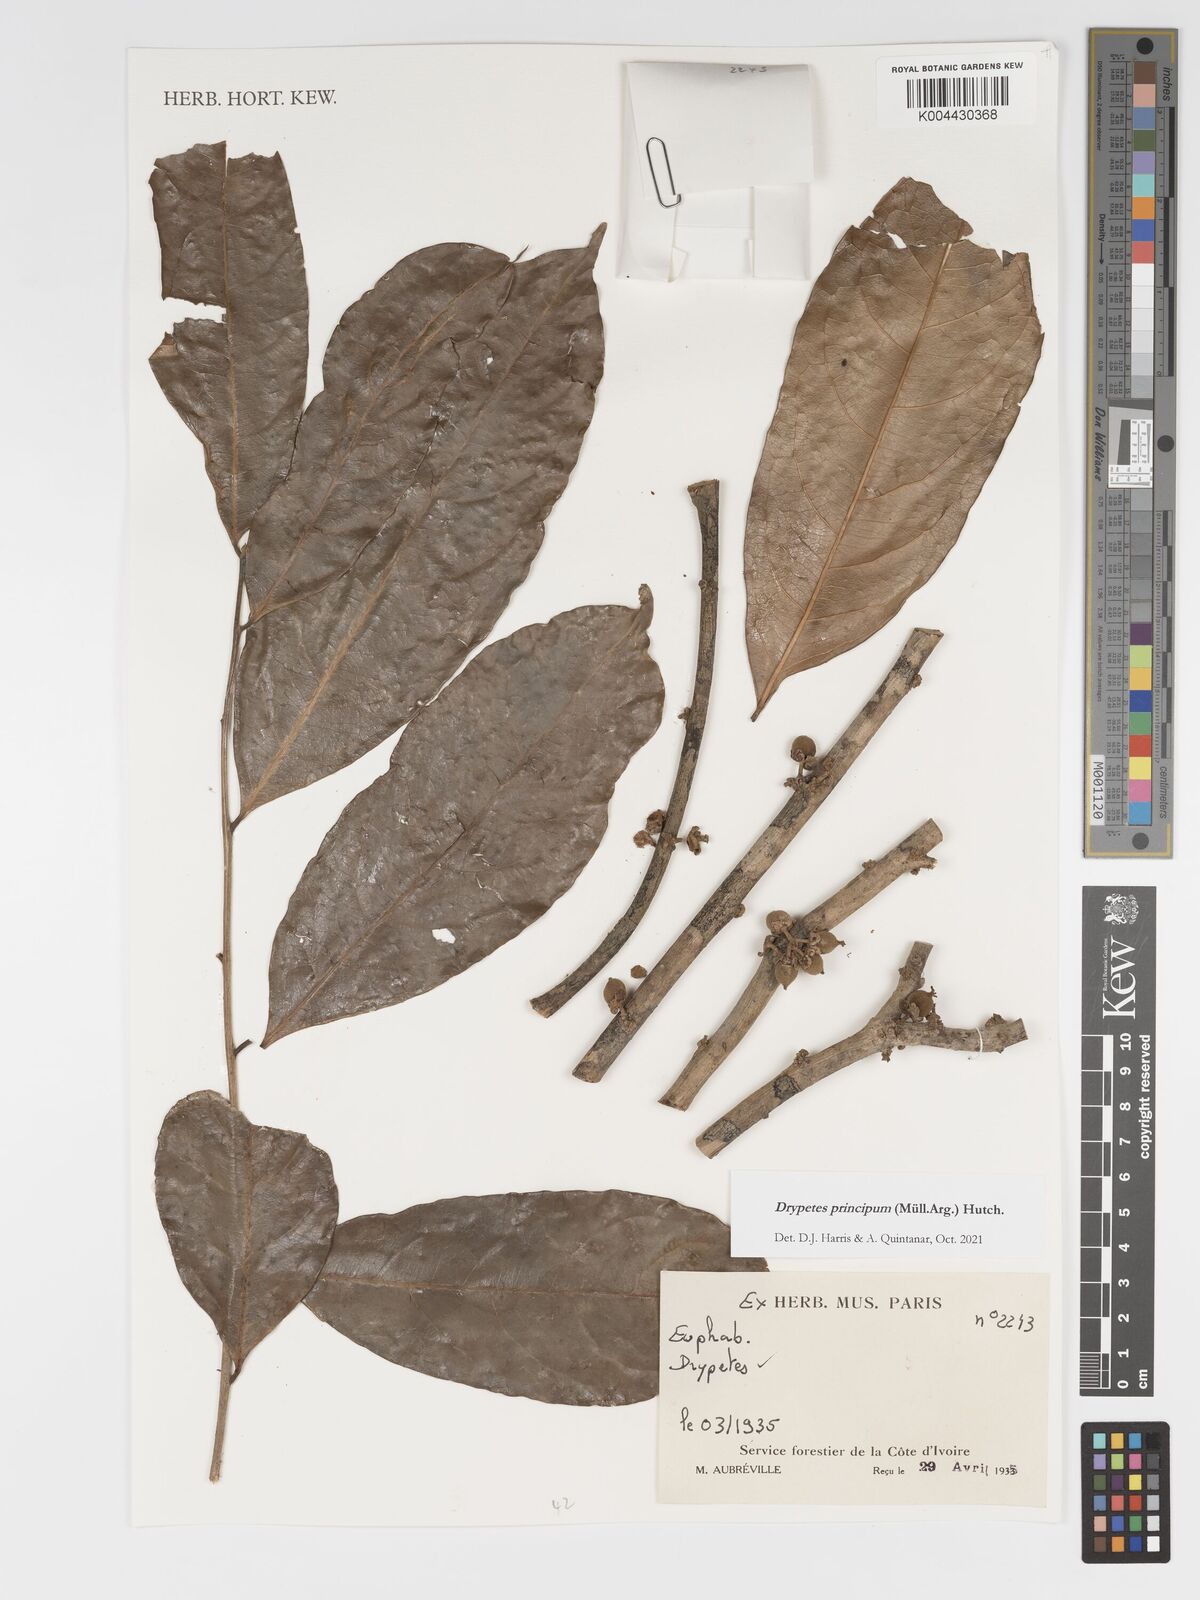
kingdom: Plantae
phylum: Tracheophyta
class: Magnoliopsida
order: Malpighiales
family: Putranjivaceae
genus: Drypetes
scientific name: Drypetes principum
